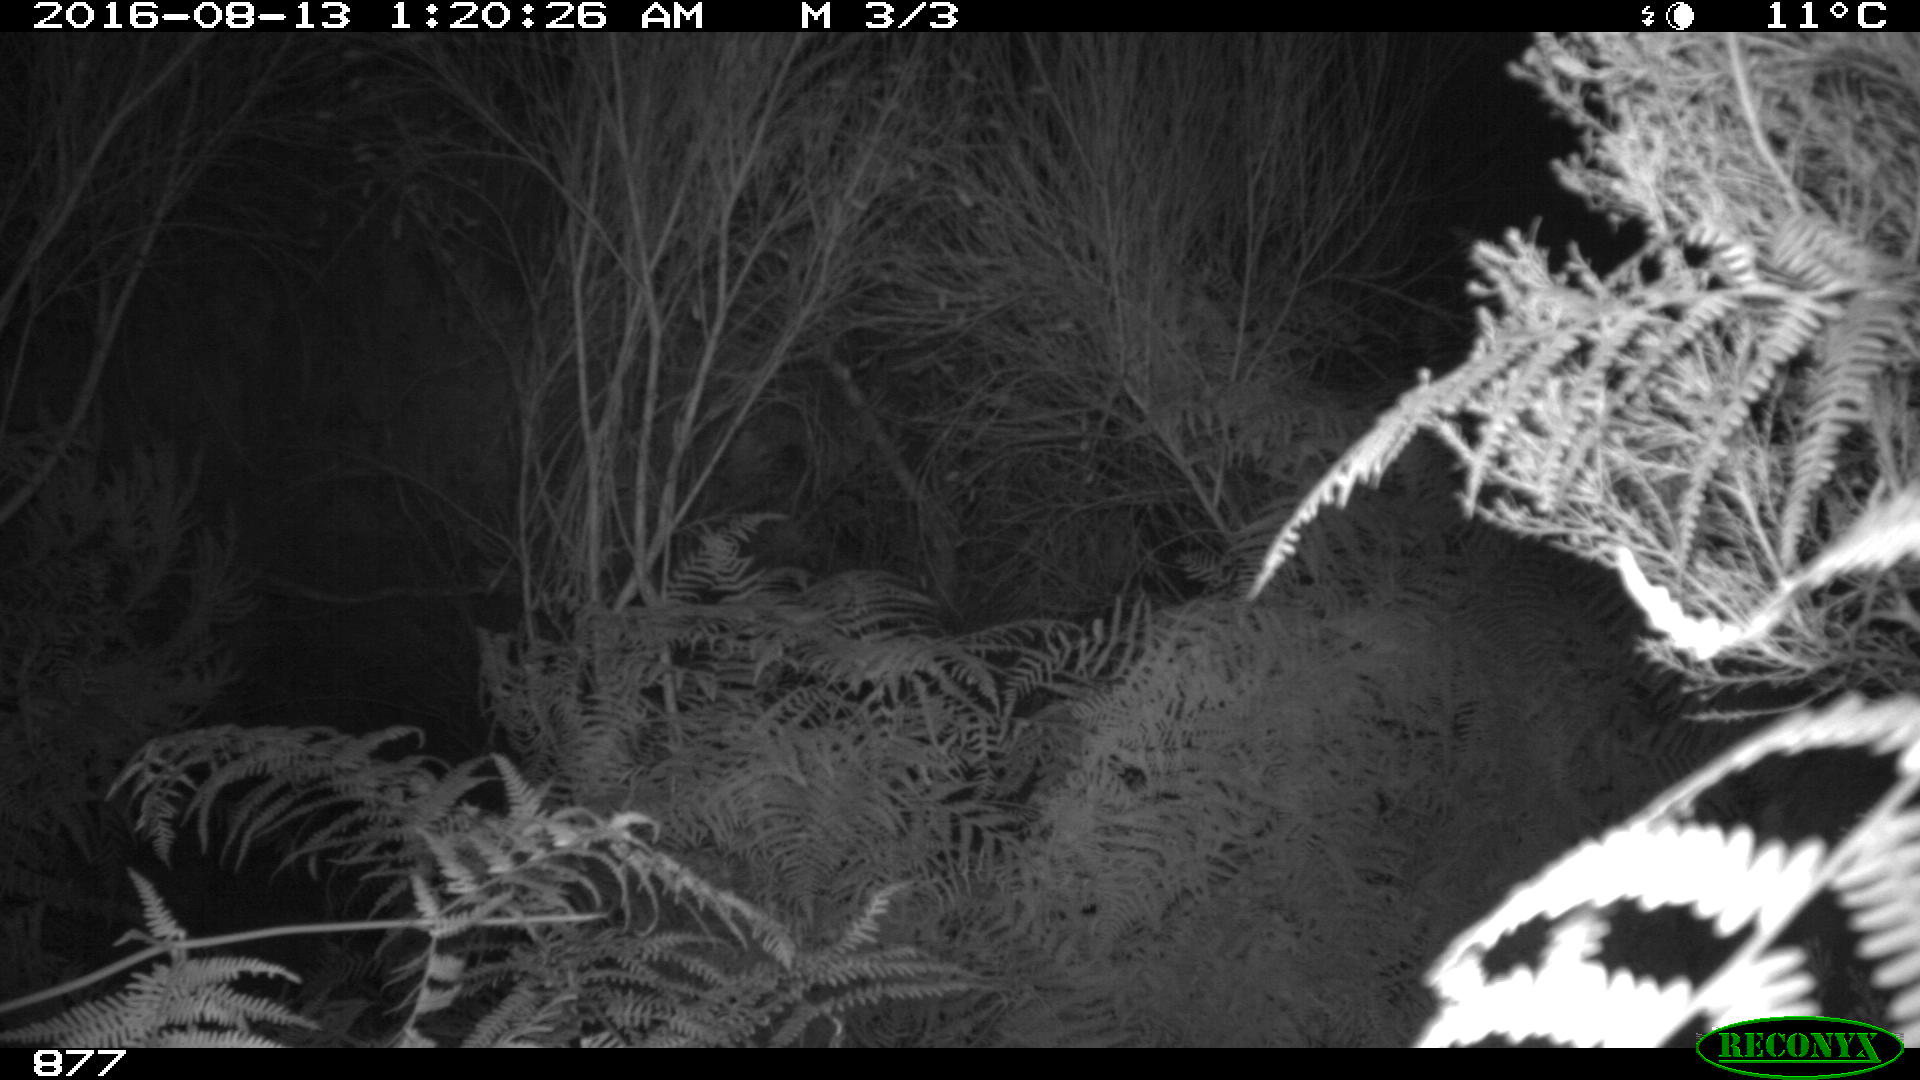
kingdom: Animalia
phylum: Chordata
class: Mammalia
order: Artiodactyla
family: Cervidae
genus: Capreolus
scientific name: Capreolus capreolus
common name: Western roe deer
